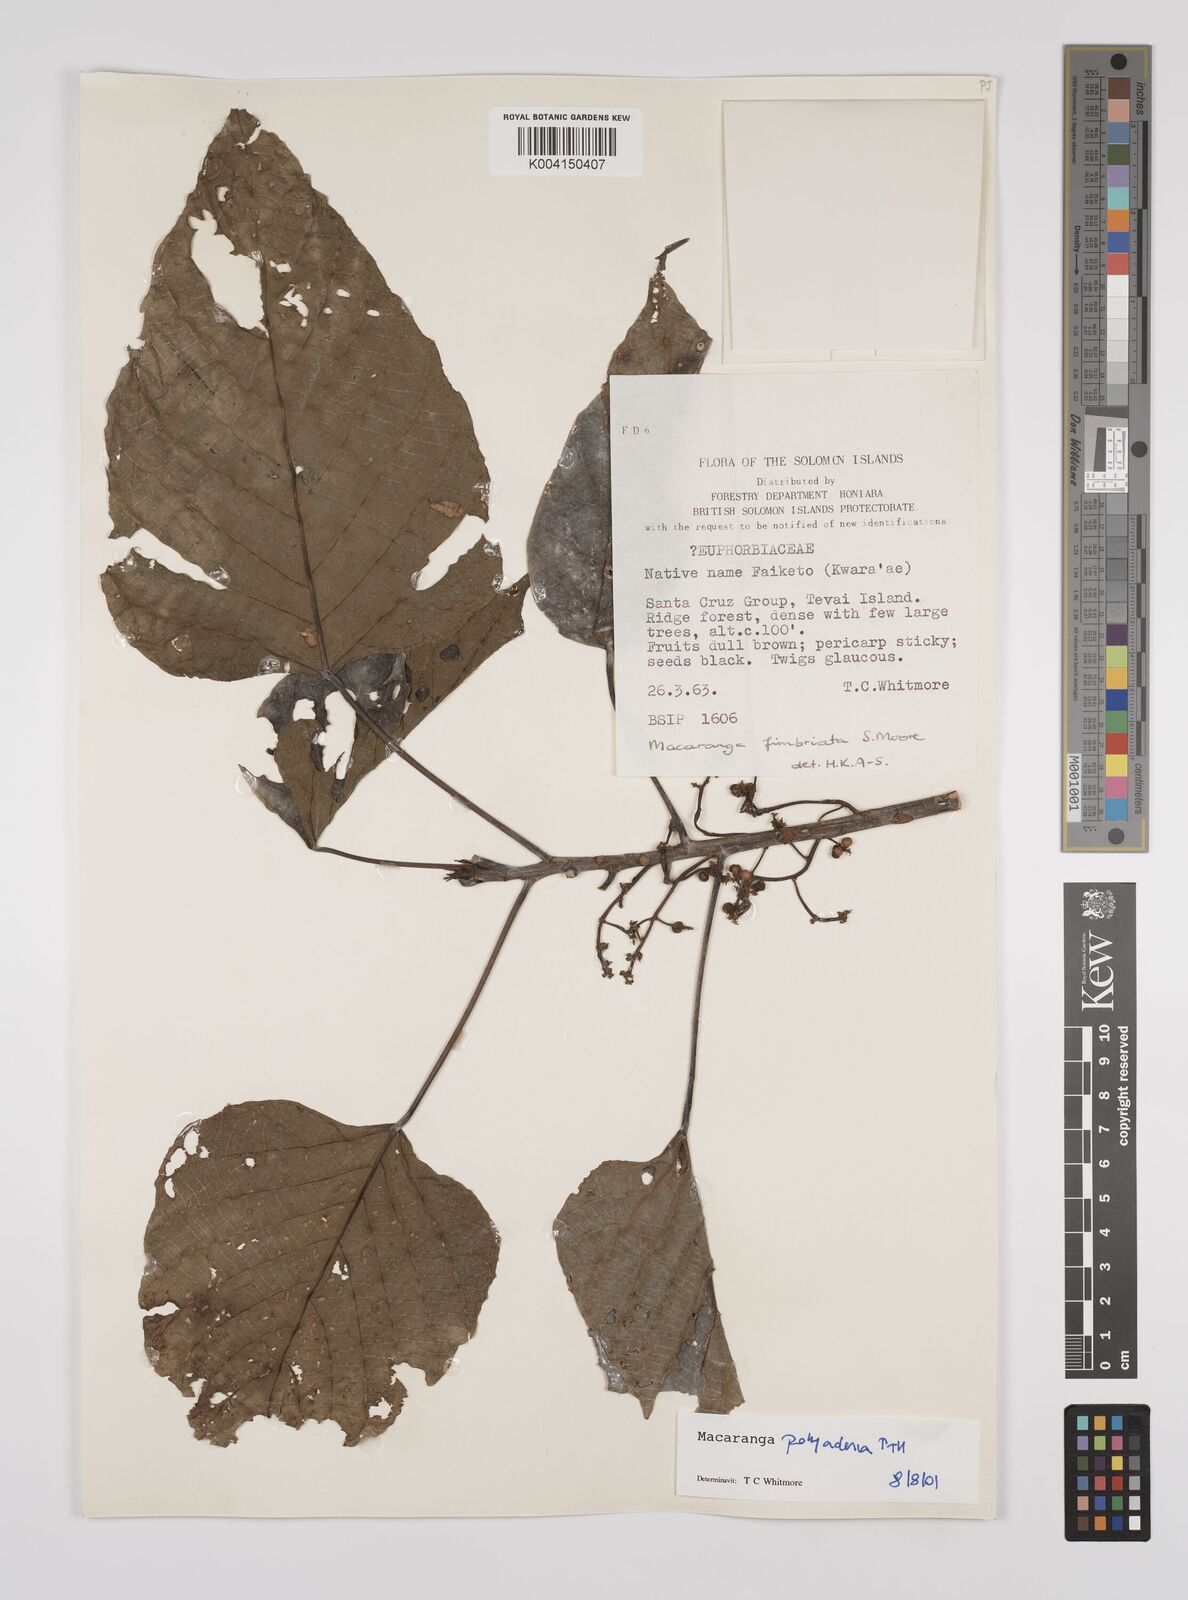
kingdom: Plantae
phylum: Tracheophyta
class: Magnoliopsida
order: Malpighiales
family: Euphorbiaceae
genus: Macaranga
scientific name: Macaranga polyadenia
